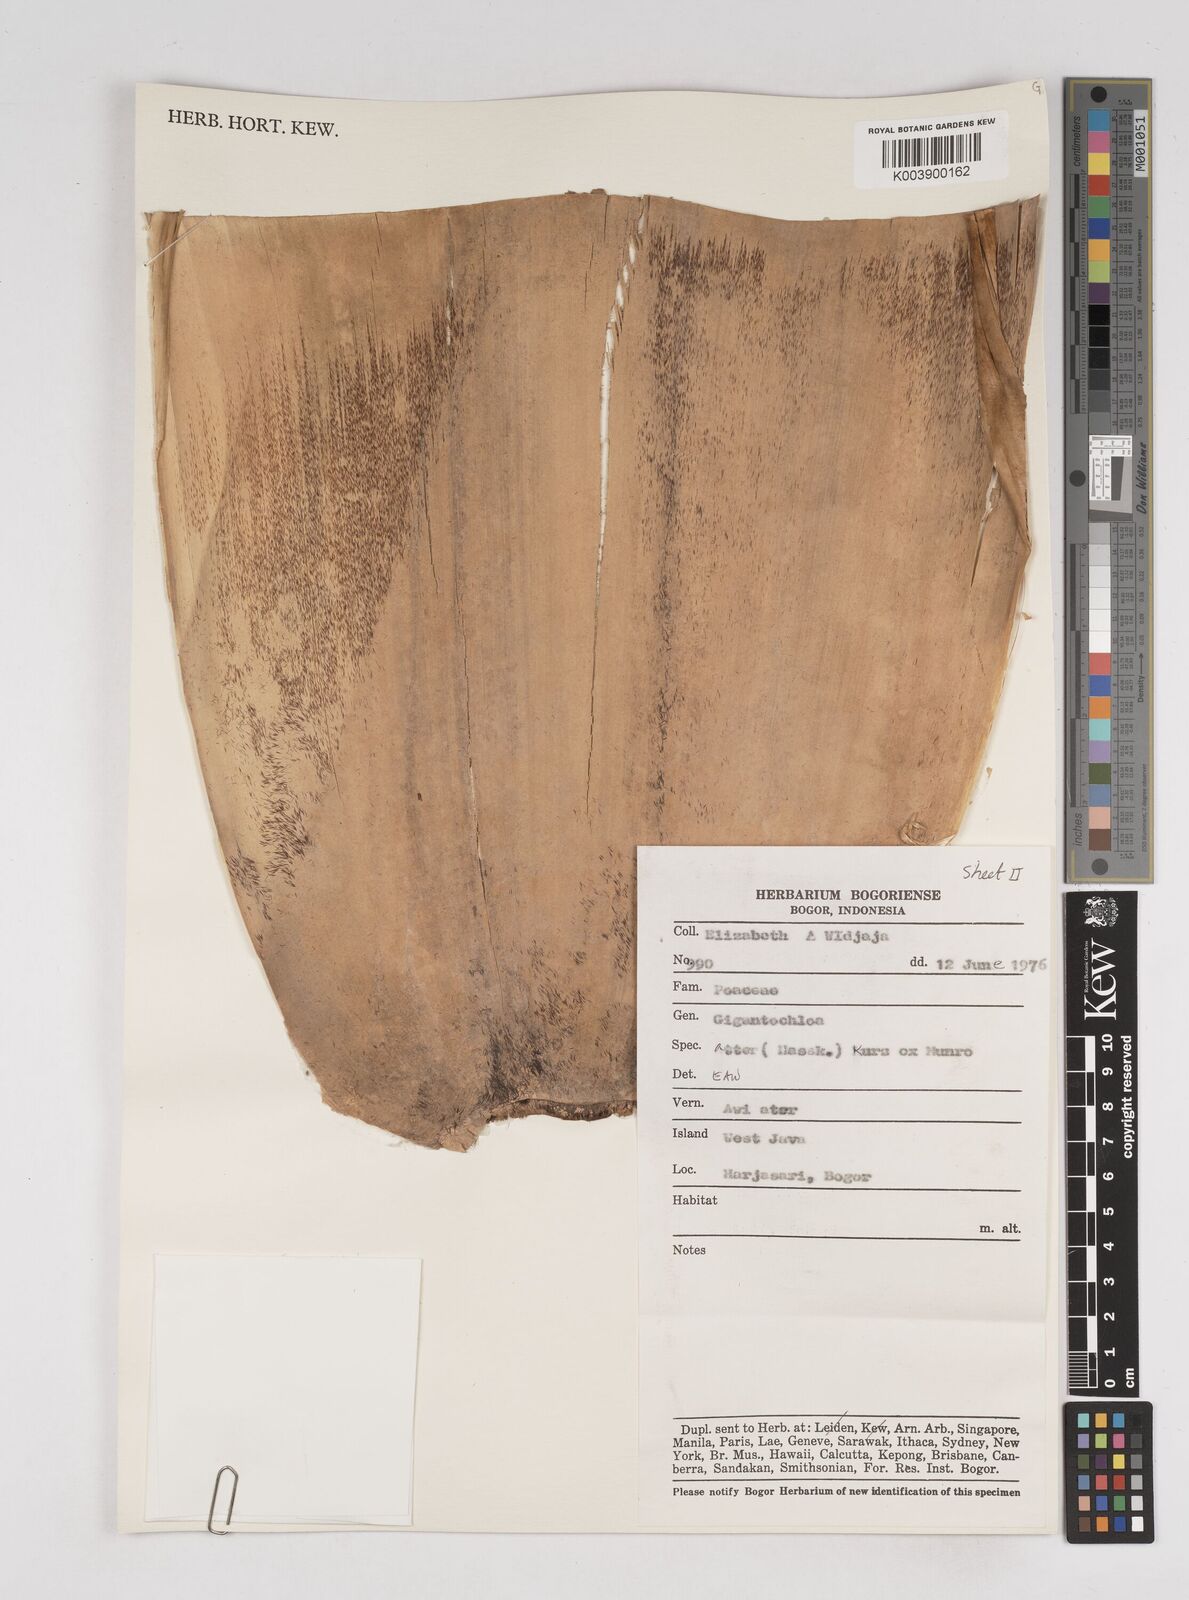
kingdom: Plantae
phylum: Tracheophyta
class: Liliopsida
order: Poales
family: Poaceae
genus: Gigantochloa
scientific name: Gigantochloa atter
